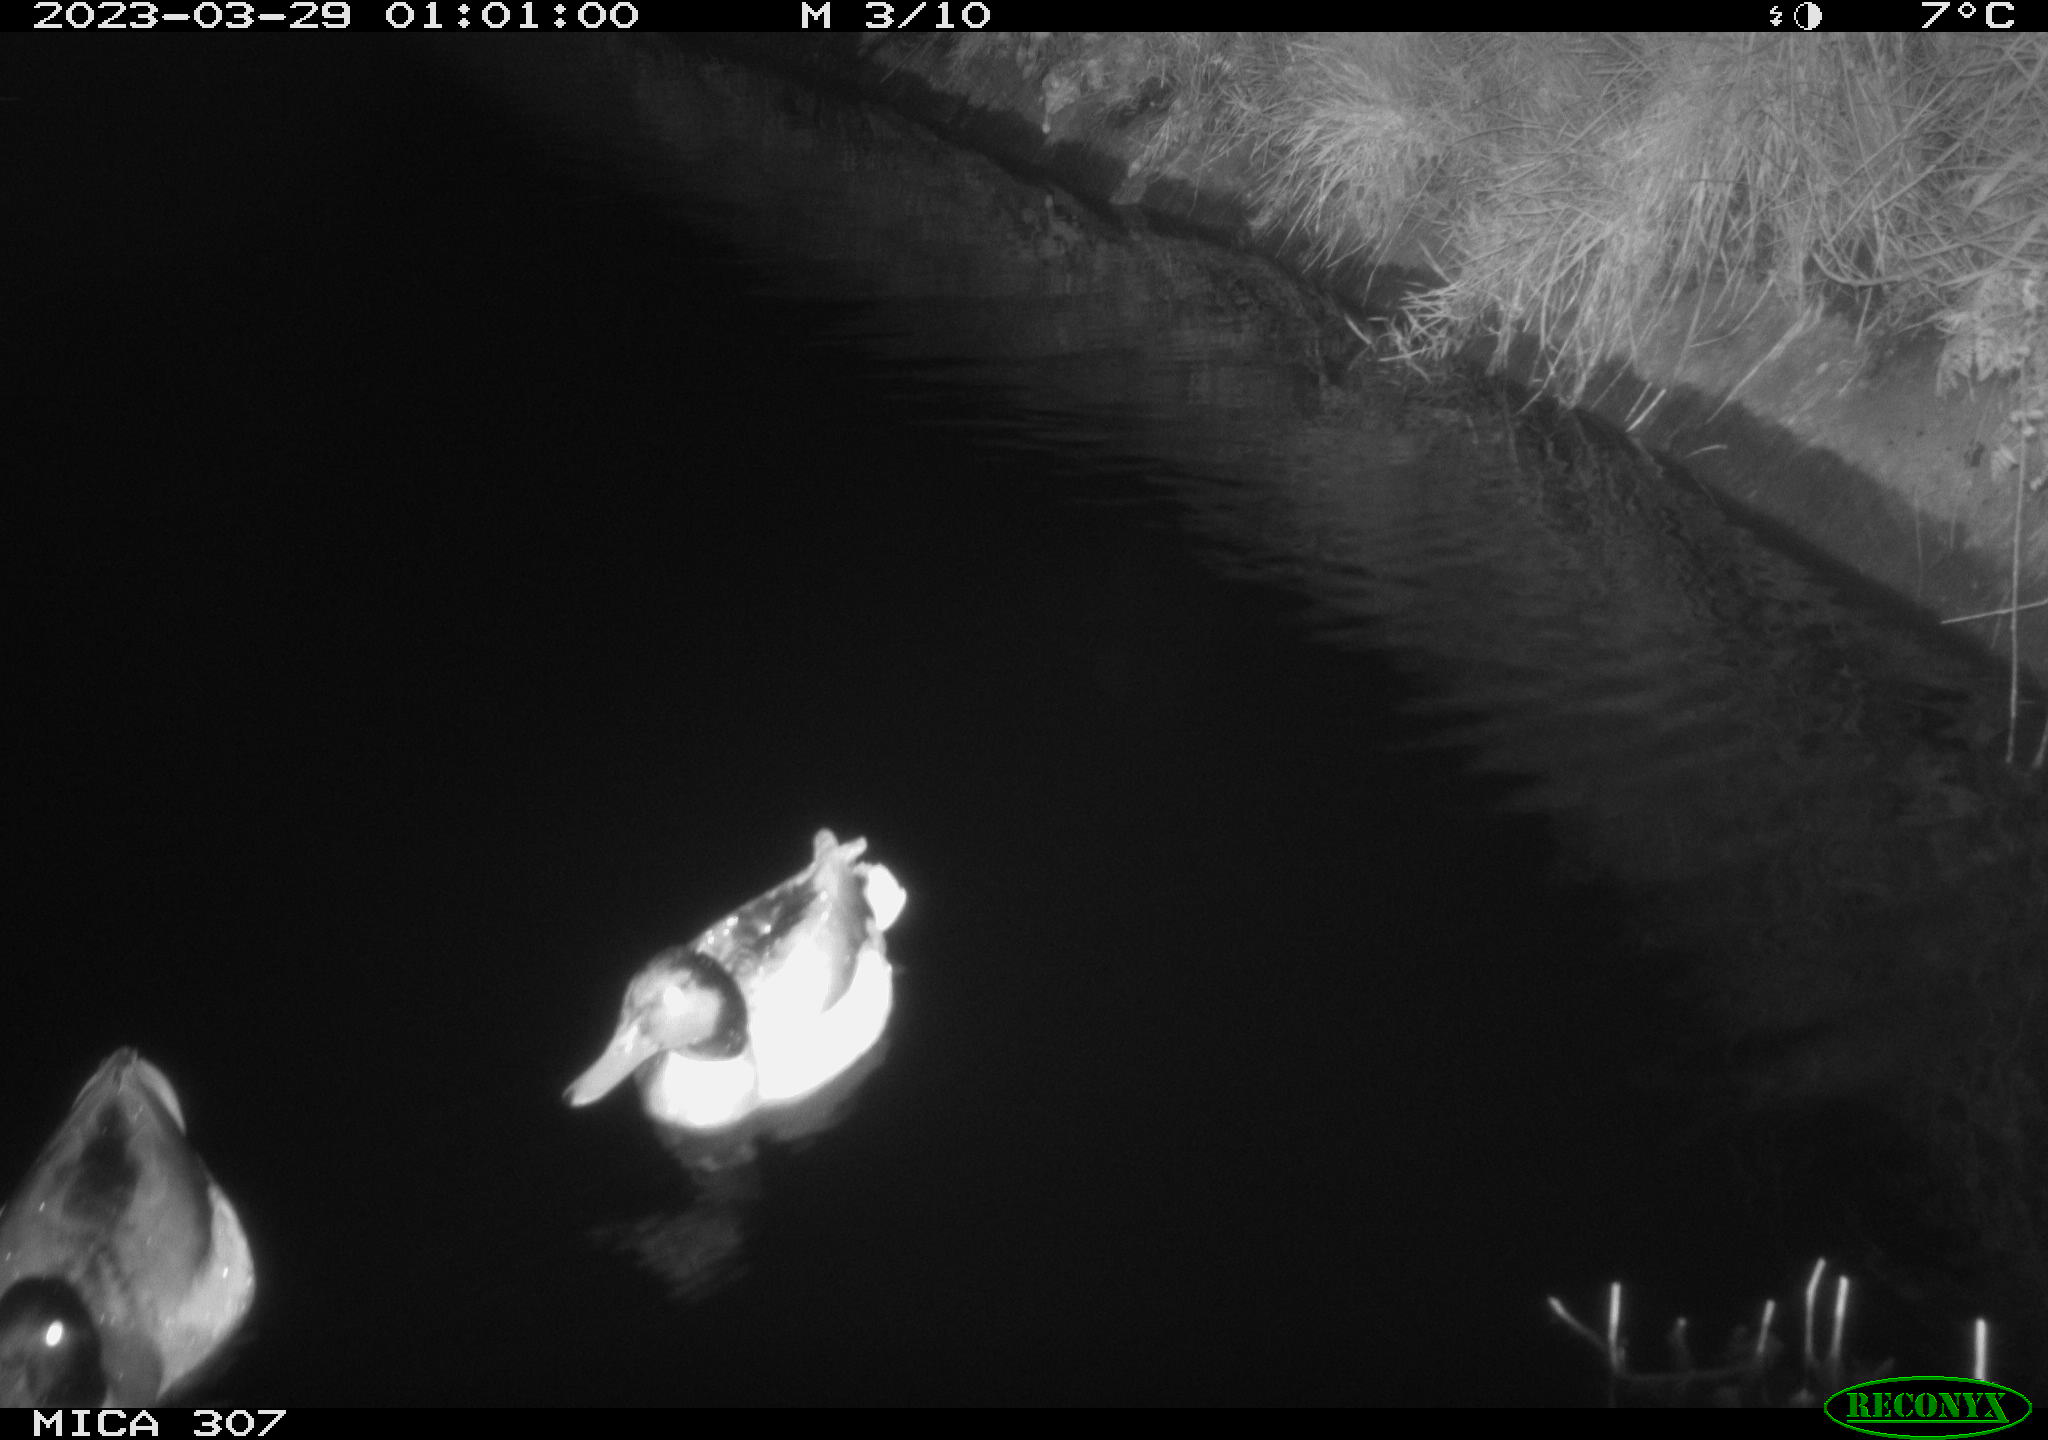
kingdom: Animalia
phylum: Chordata
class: Aves
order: Anseriformes
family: Anatidae
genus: Anas
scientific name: Anas
